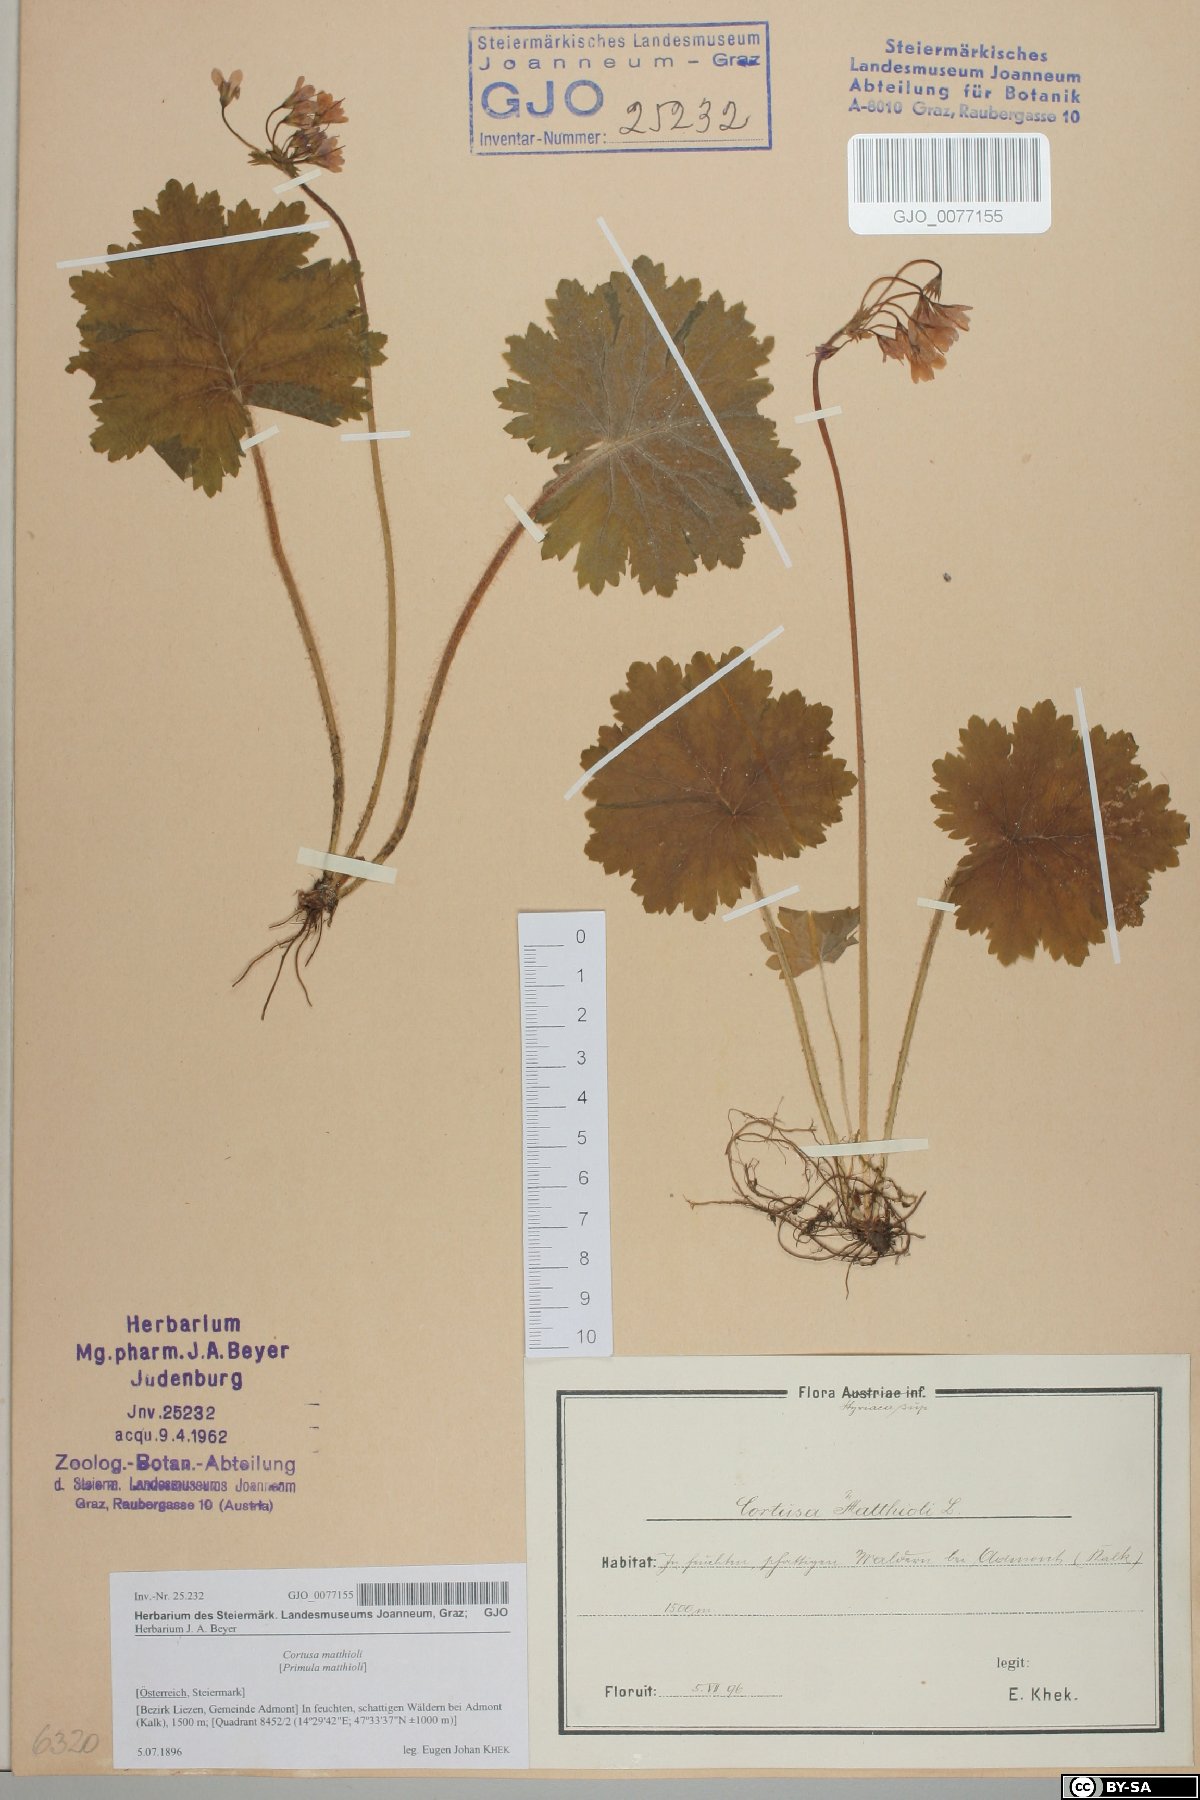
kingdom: Plantae
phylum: Tracheophyta
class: Magnoliopsida
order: Ericales
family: Primulaceae
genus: Primula
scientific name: Primula matthioli
